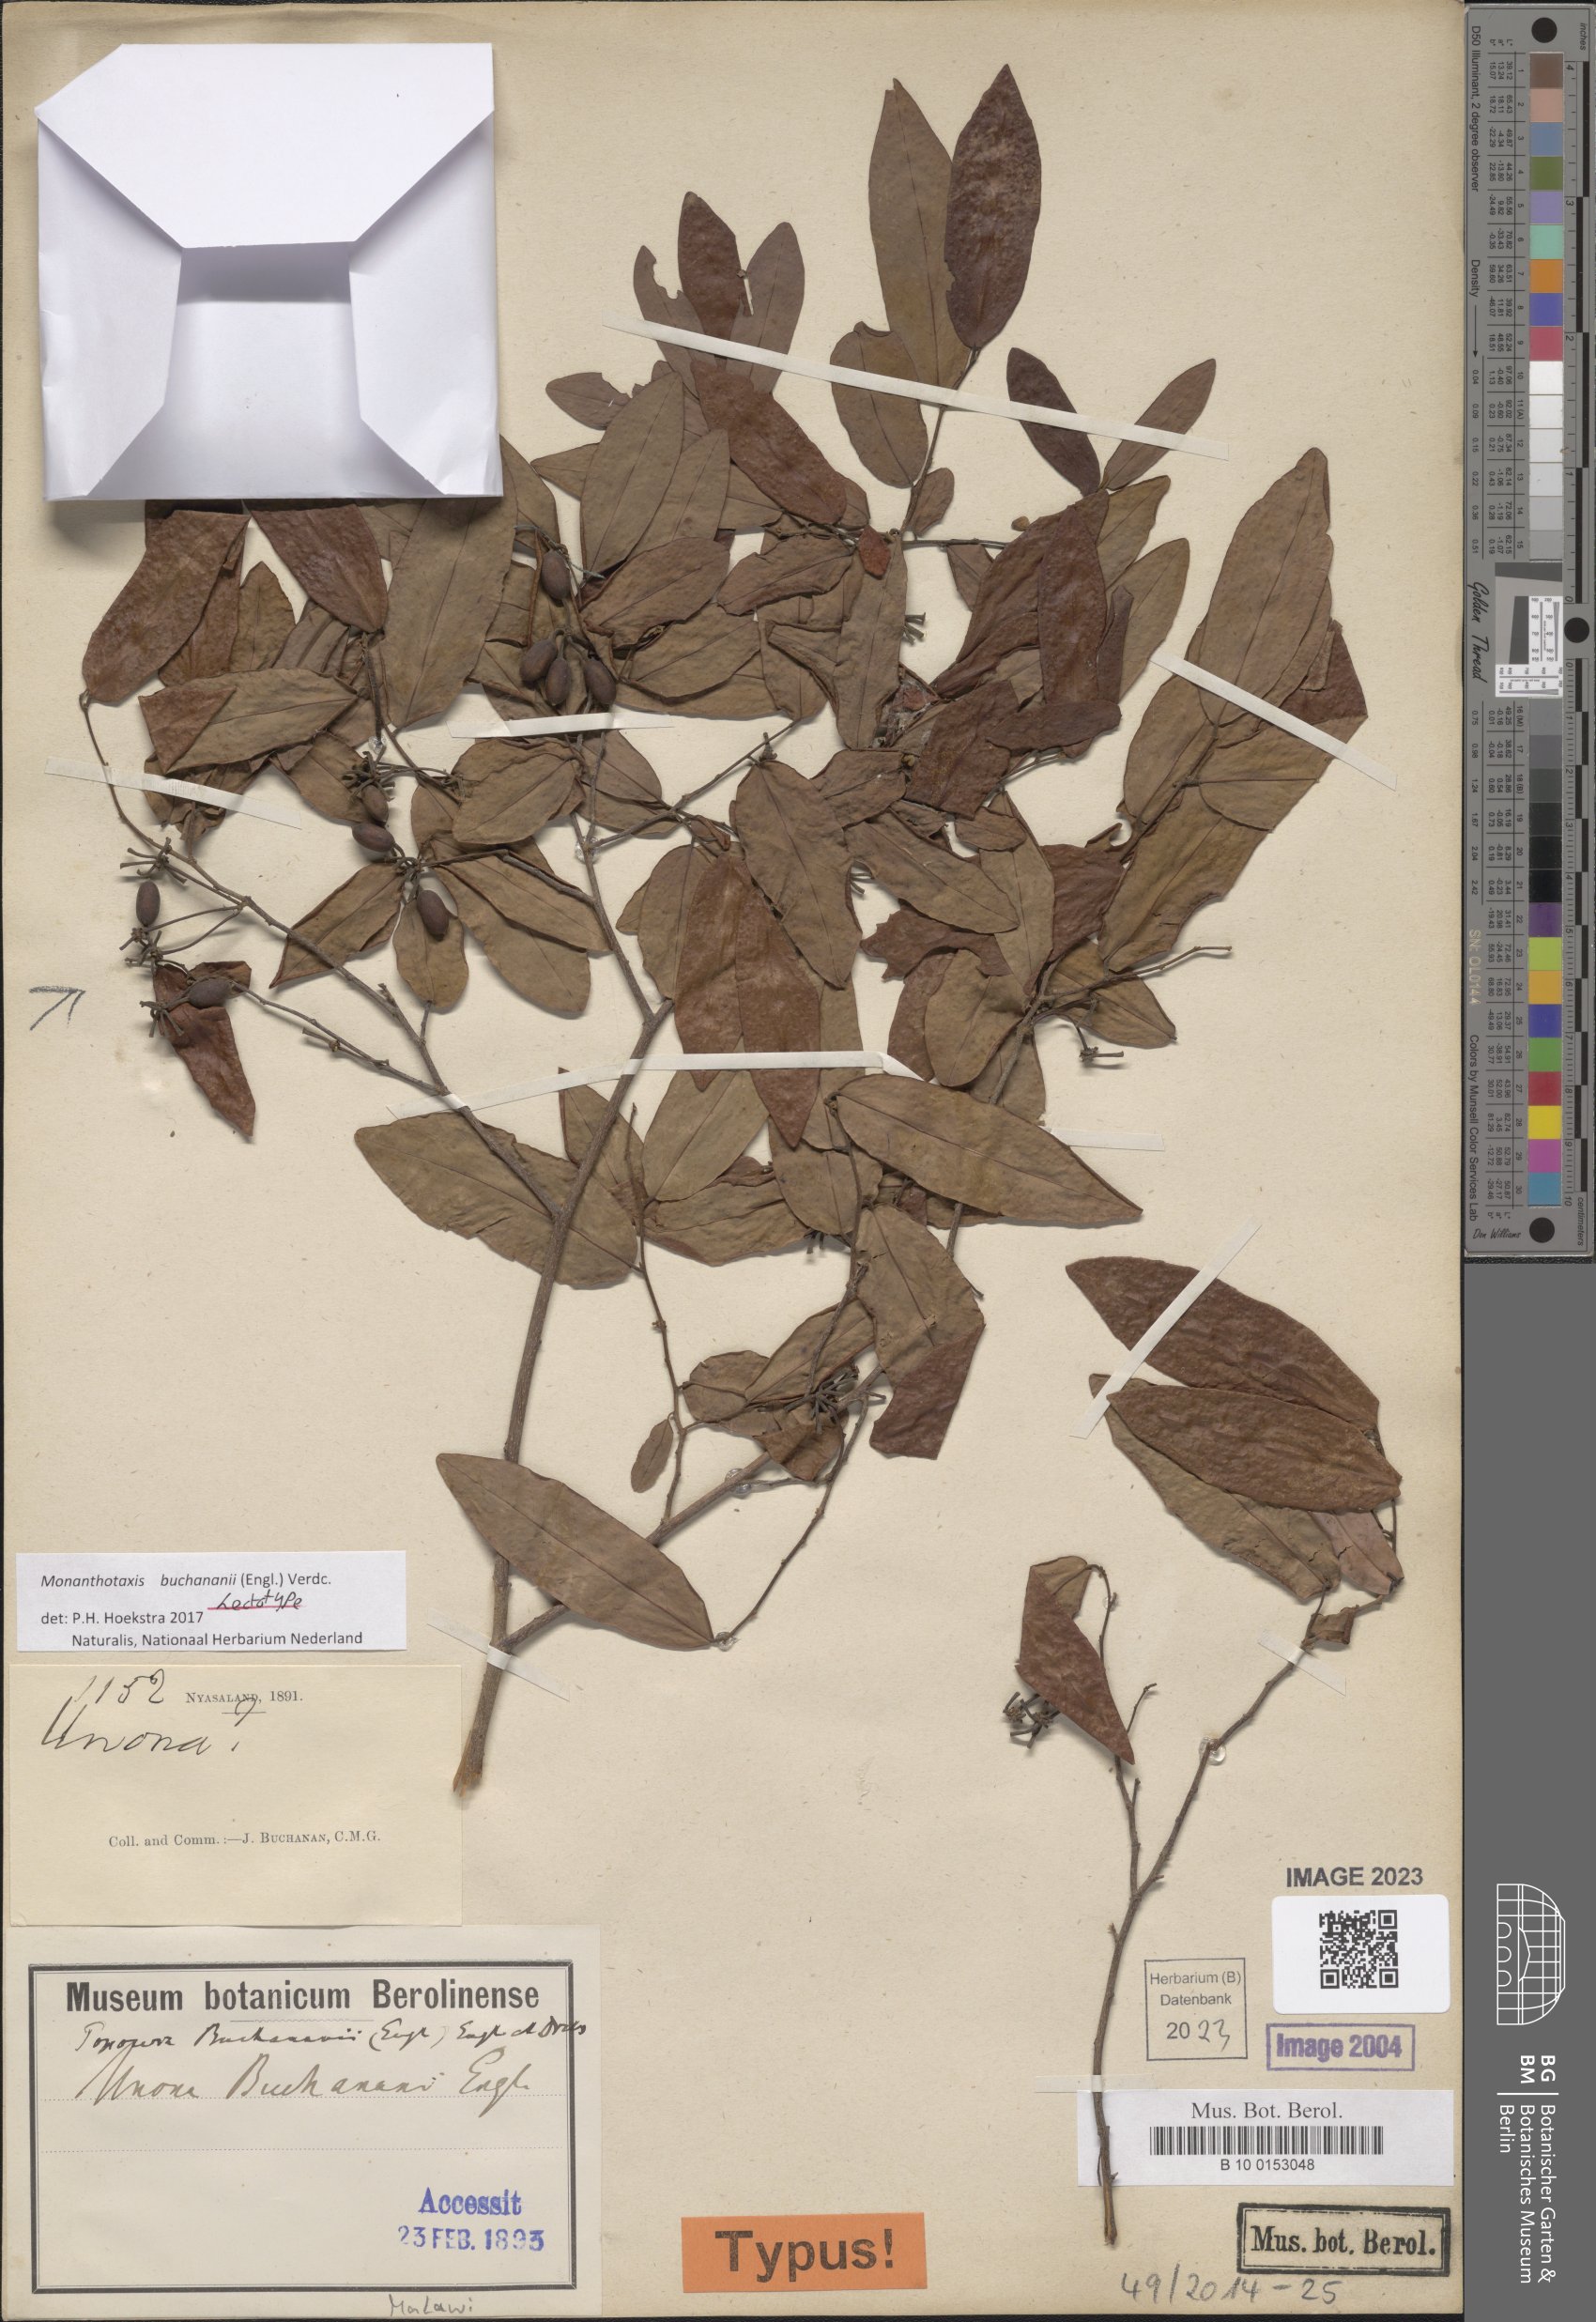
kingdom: Plantae
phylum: Tracheophyta
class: Magnoliopsida
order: Magnoliales
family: Annonaceae
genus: Monanthotaxis
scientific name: Monanthotaxis buchananii
